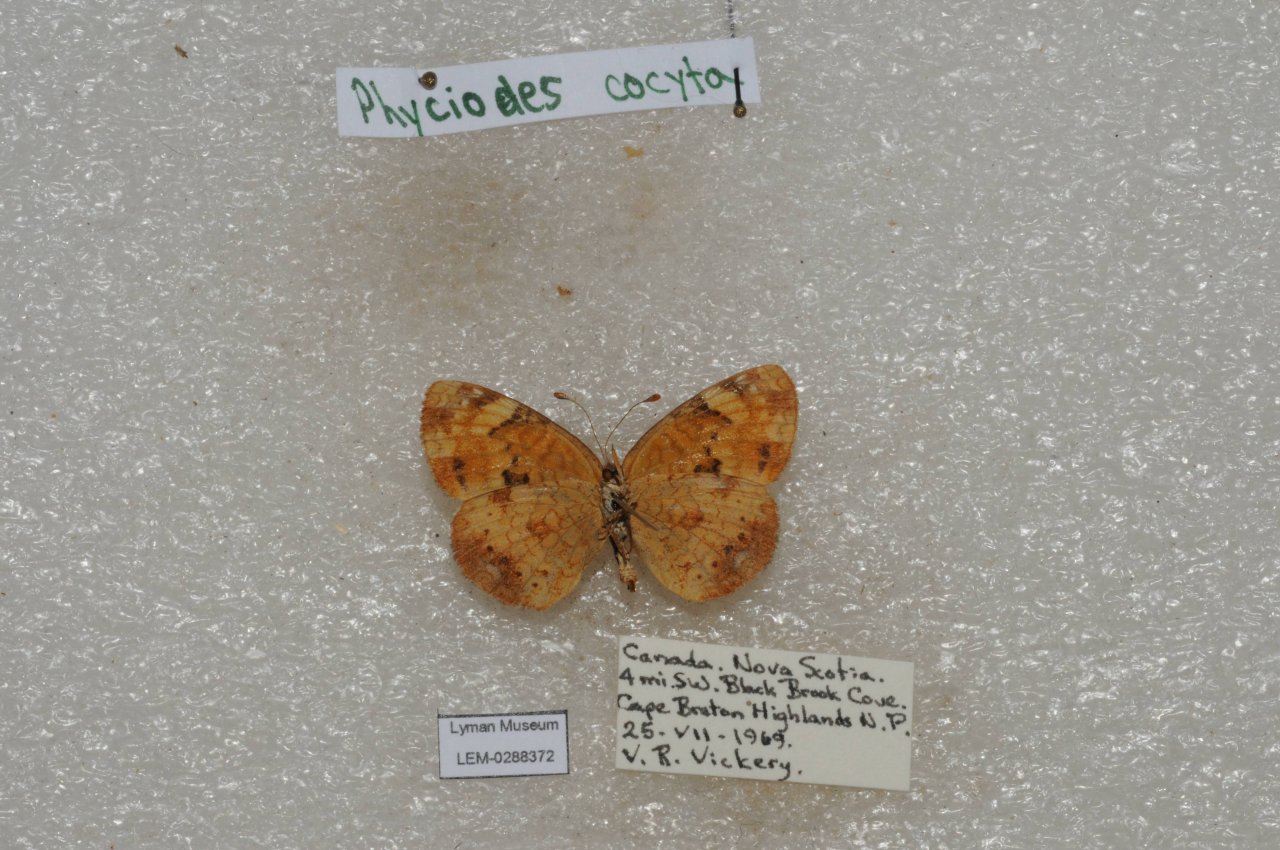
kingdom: Animalia
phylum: Arthropoda
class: Insecta
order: Lepidoptera
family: Nymphalidae
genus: Phyciodes
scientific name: Phyciodes tharos
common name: Northern Crescent
